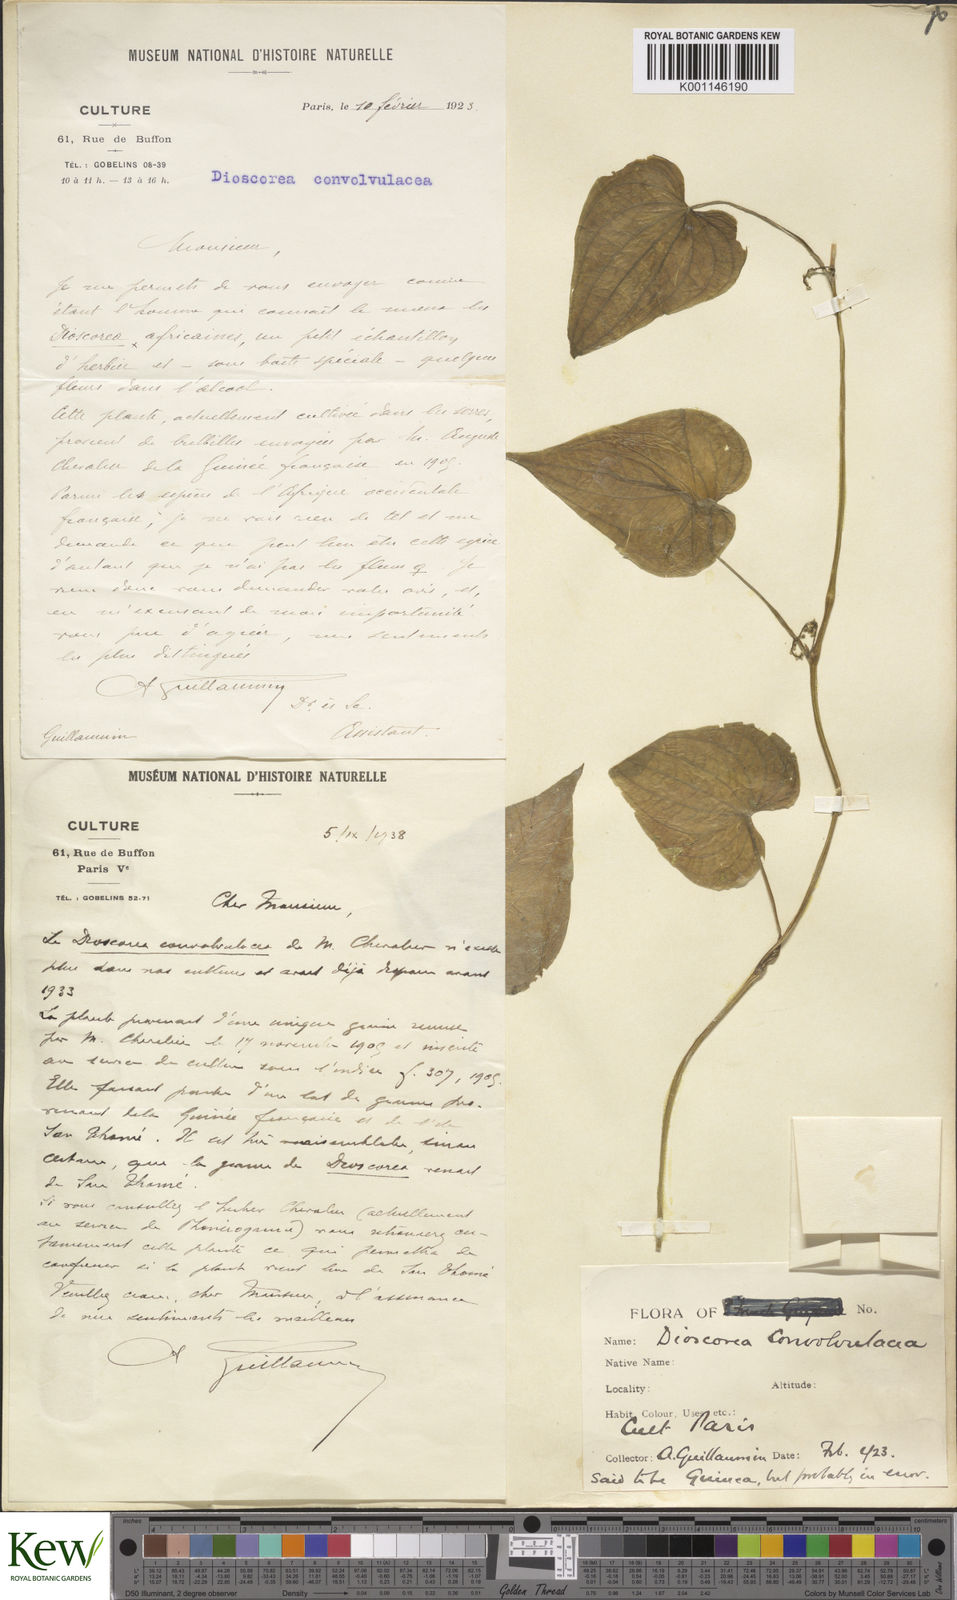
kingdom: Plantae
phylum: Tracheophyta
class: Liliopsida
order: Dioscoreales
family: Dioscoreaceae
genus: Dioscorea
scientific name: Dioscorea convolvulacea
